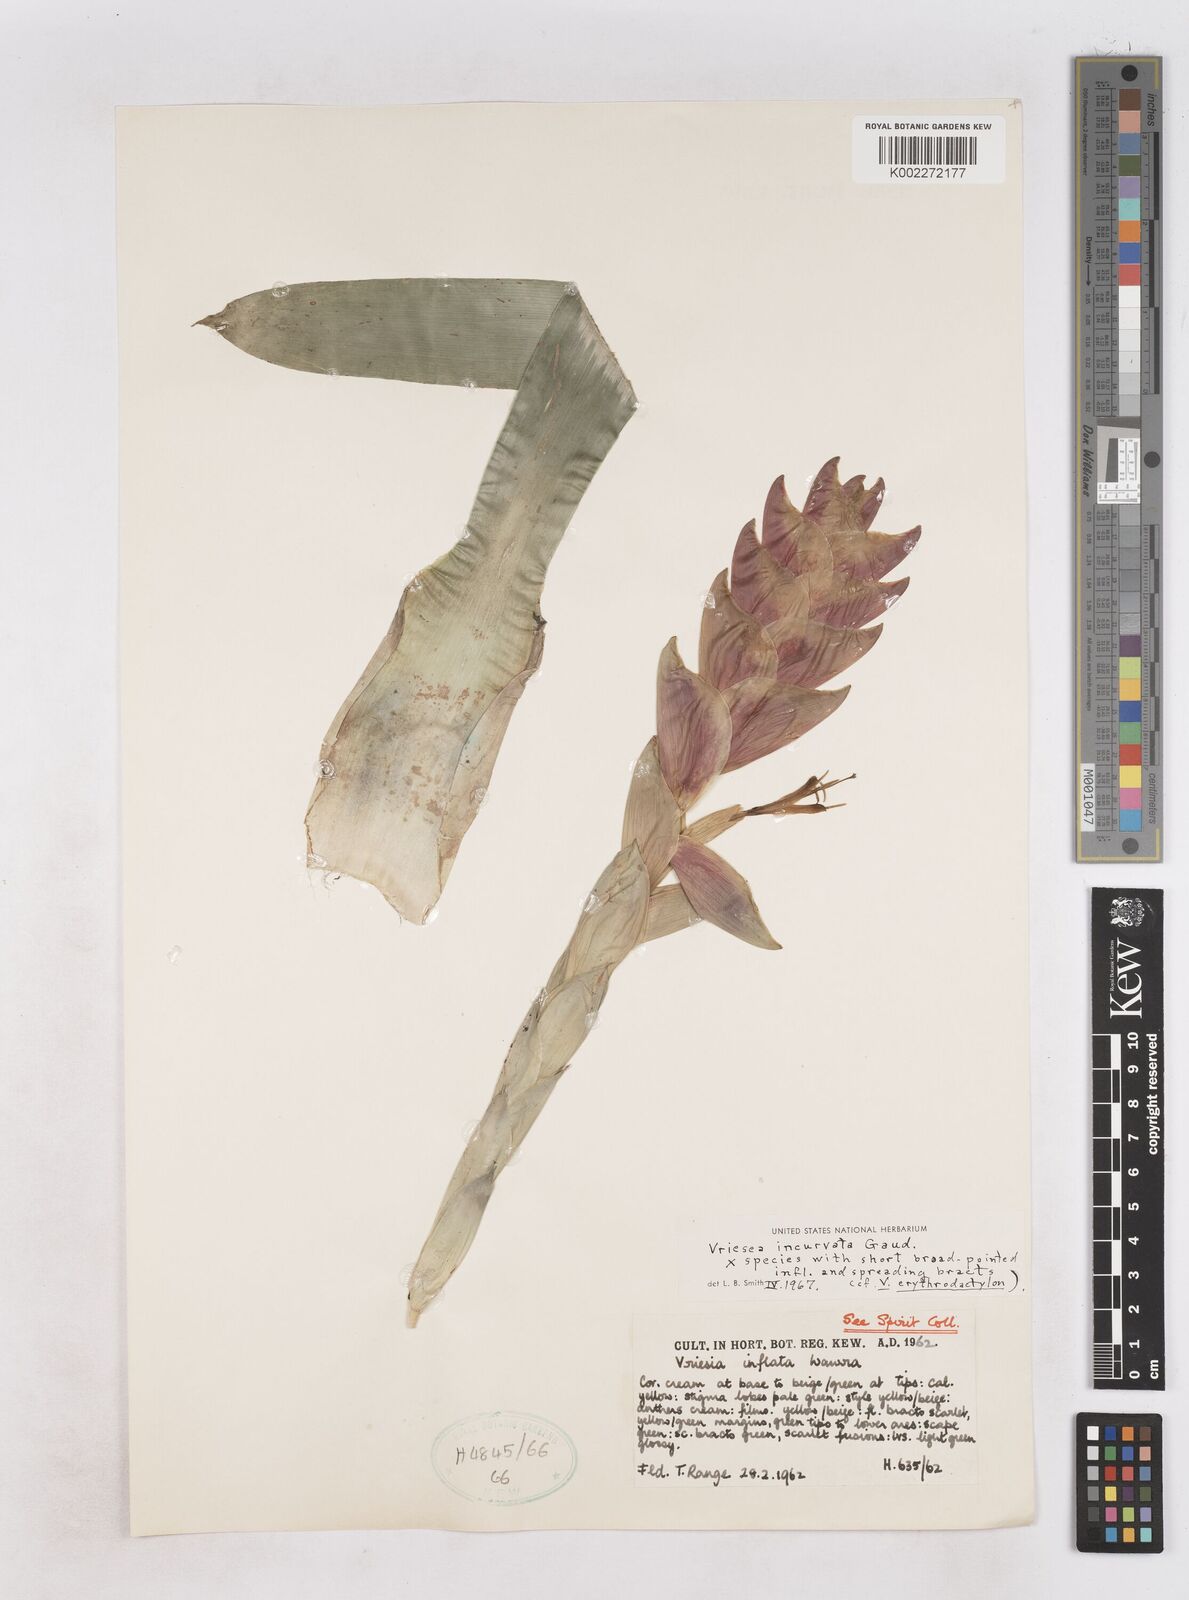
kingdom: Plantae
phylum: Tracheophyta
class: Liliopsida
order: Poales
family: Bromeliaceae
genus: Vriesea
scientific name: Vriesea incurvata
